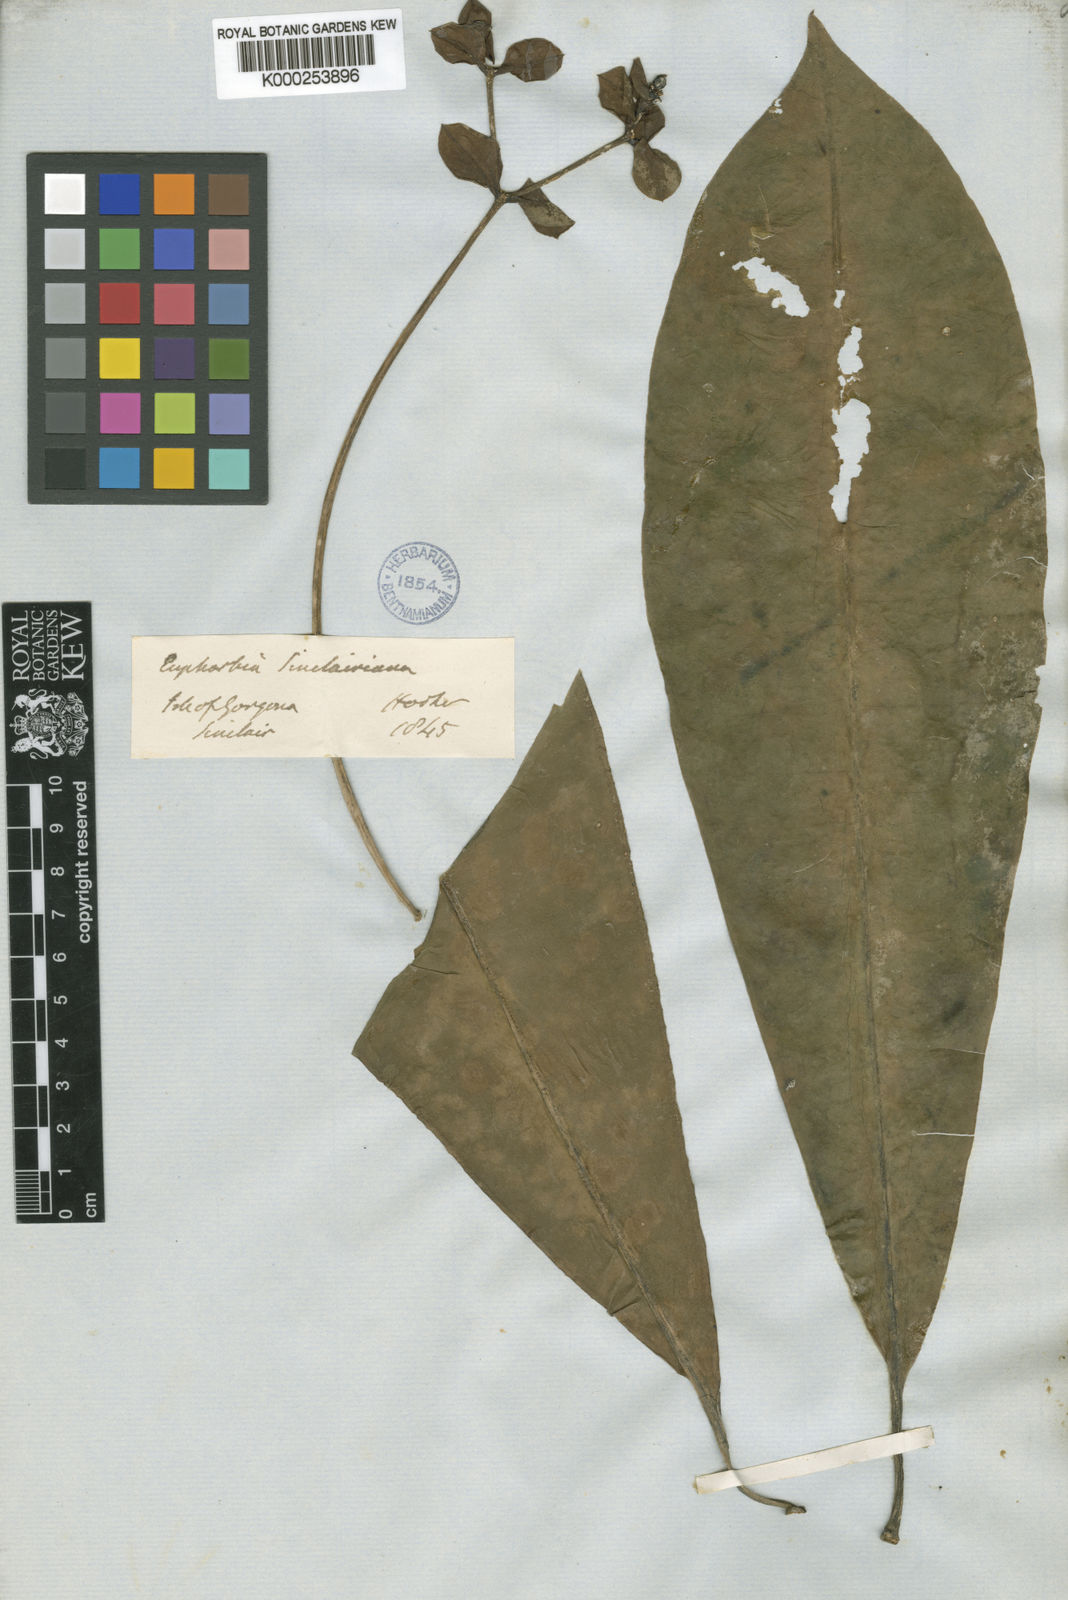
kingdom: Plantae
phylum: Tracheophyta
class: Magnoliopsida
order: Malpighiales
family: Euphorbiaceae
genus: Euphorbia
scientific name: Euphorbia sinclairiana
